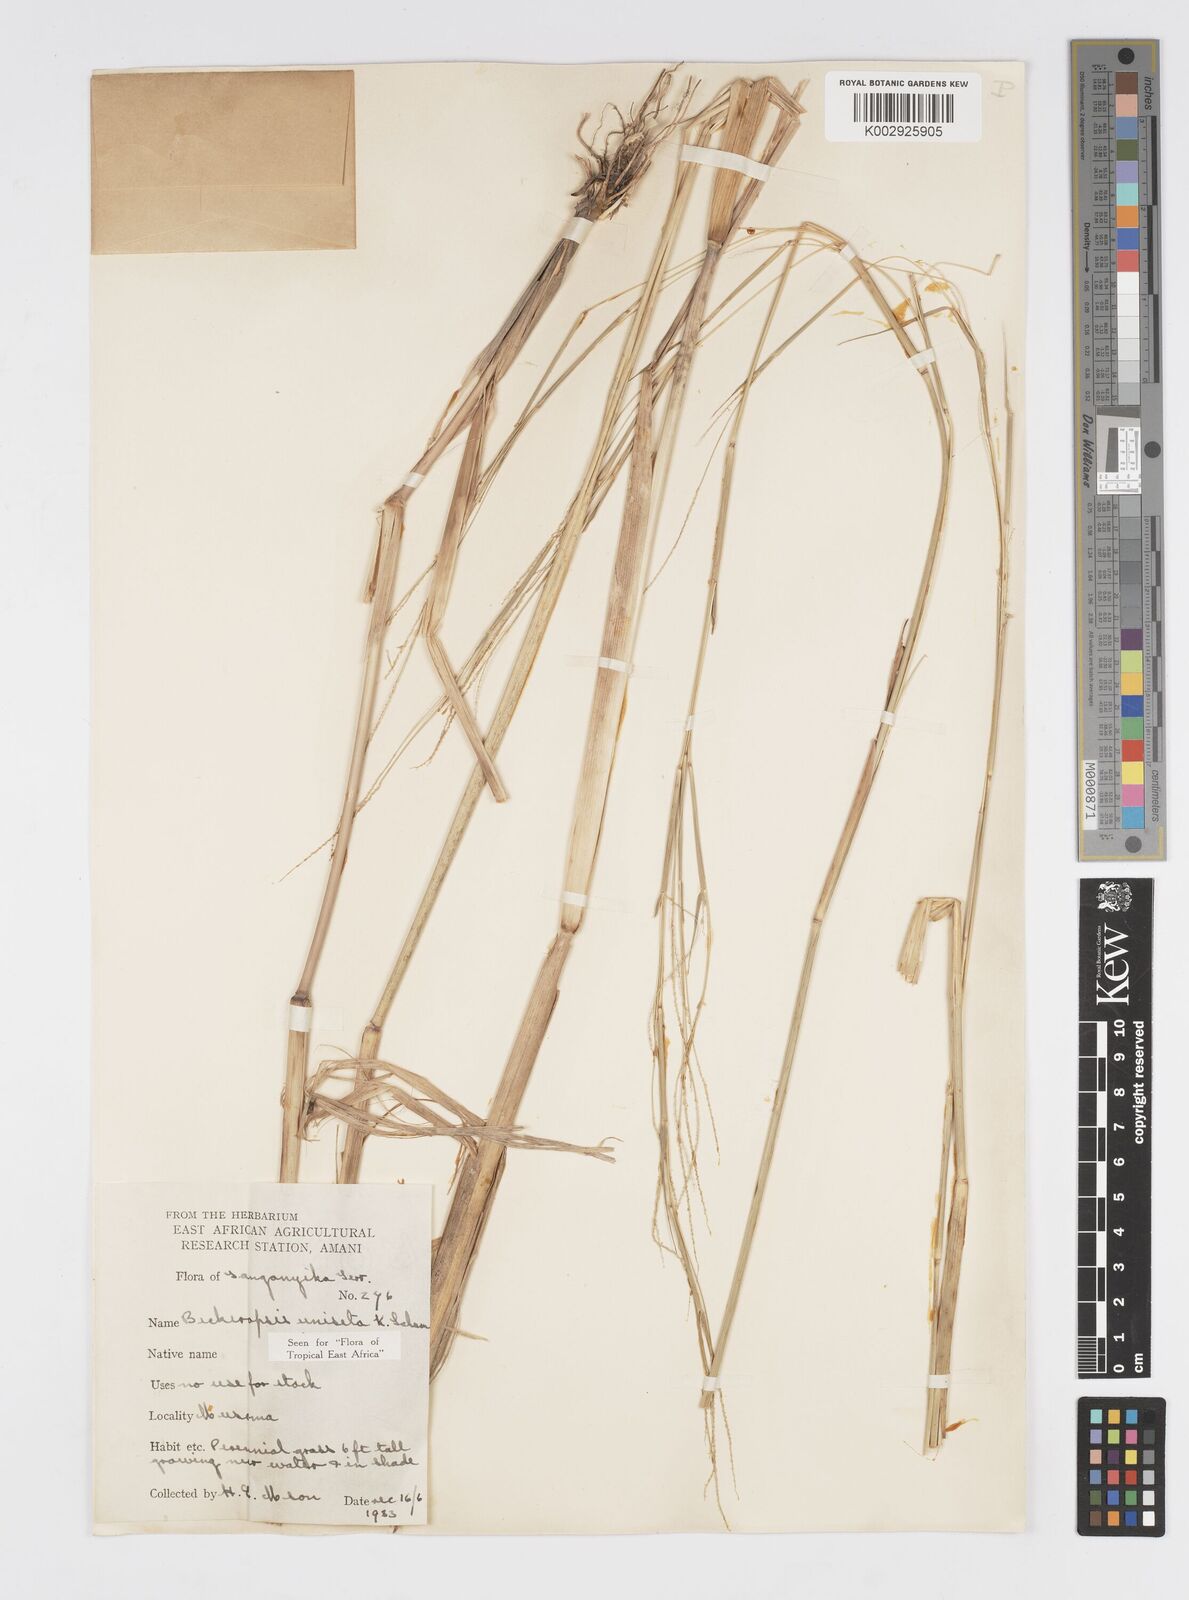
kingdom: Plantae
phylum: Tracheophyta
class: Liliopsida
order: Poales
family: Poaceae
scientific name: Poaceae
